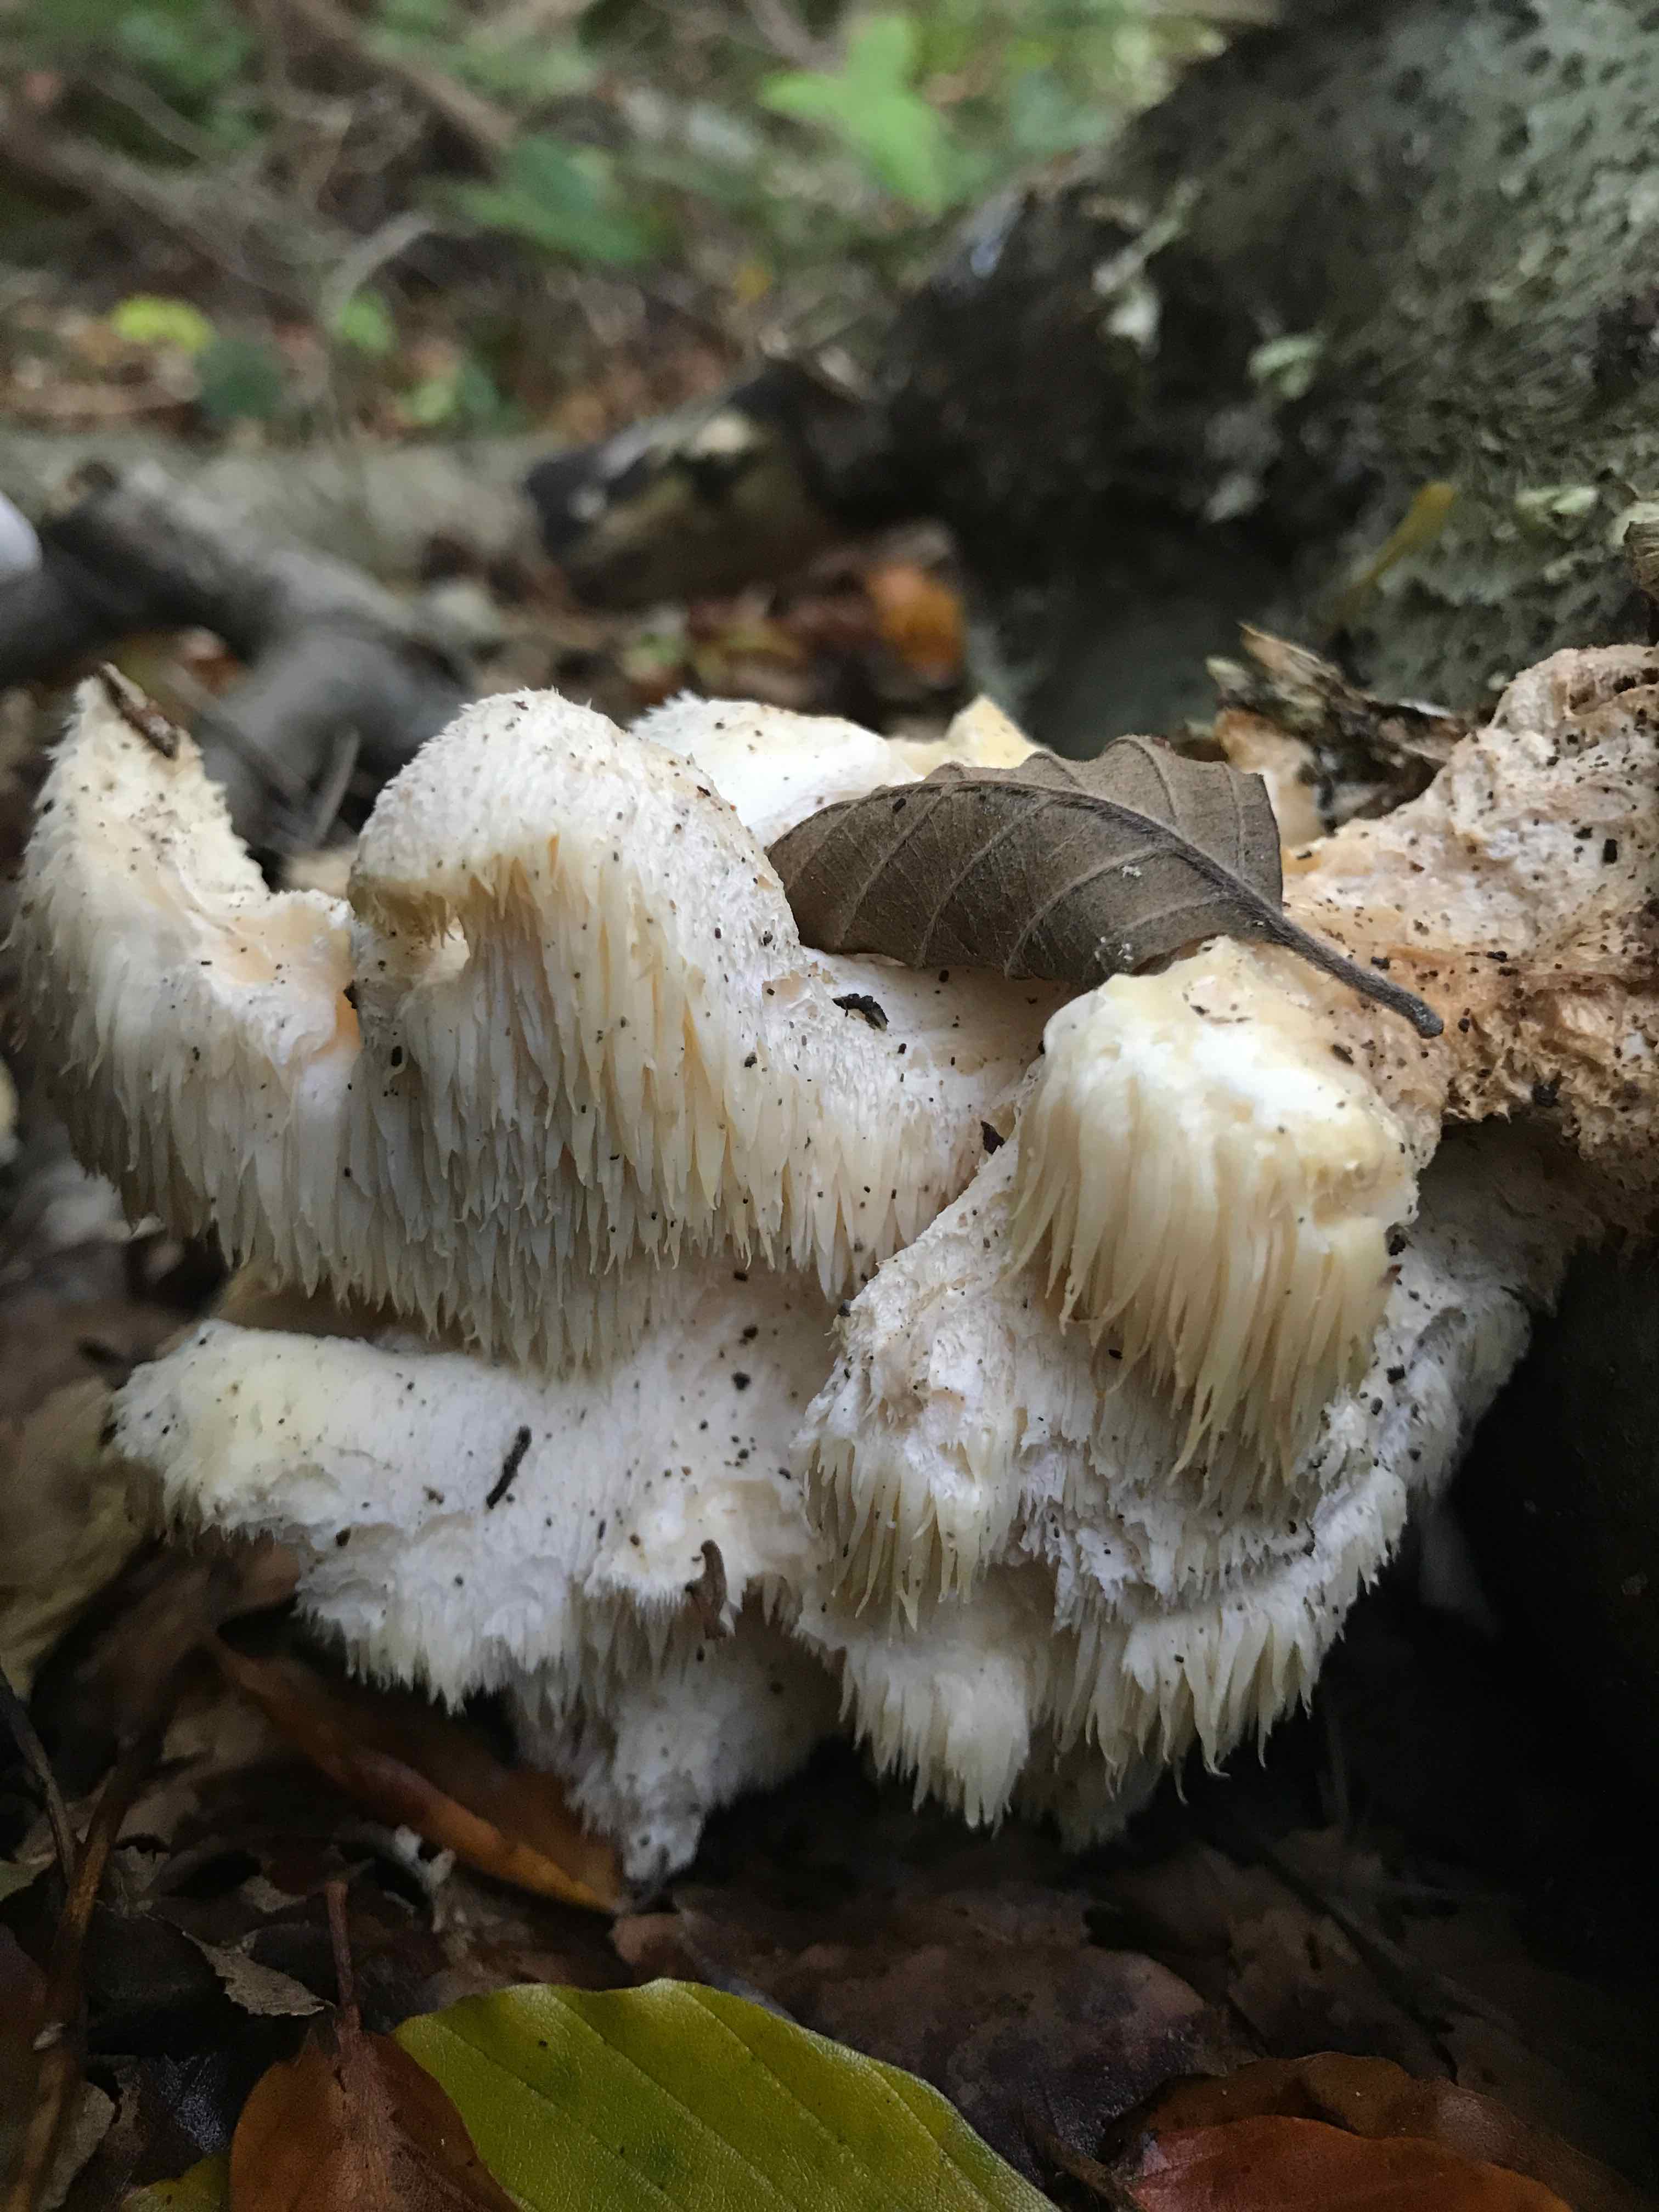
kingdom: Fungi
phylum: Basidiomycota
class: Agaricomycetes
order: Russulales
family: Hericiaceae
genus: Hericium
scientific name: Hericium cirrhatum
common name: børstepigsvamp
